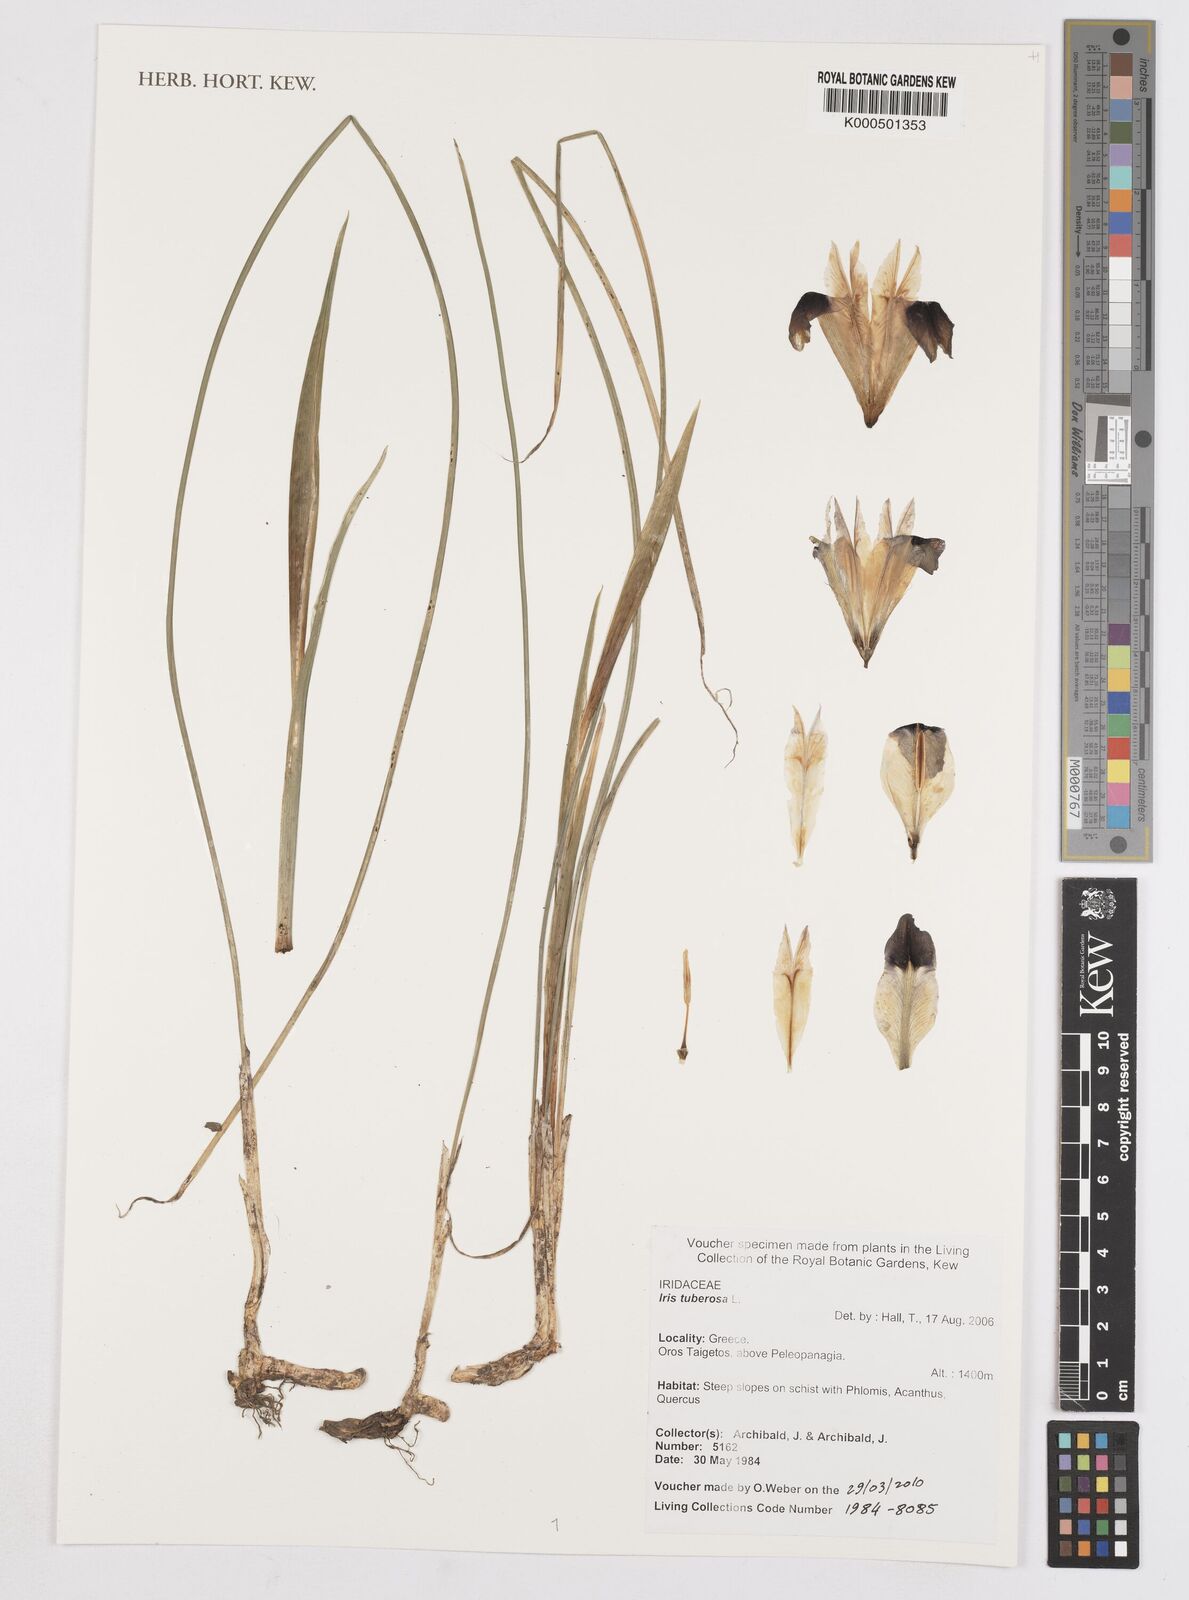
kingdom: Plantae
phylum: Tracheophyta
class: Liliopsida
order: Asparagales
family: Iridaceae
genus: Iris
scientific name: Iris tuberosa
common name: Snake's-head iris
